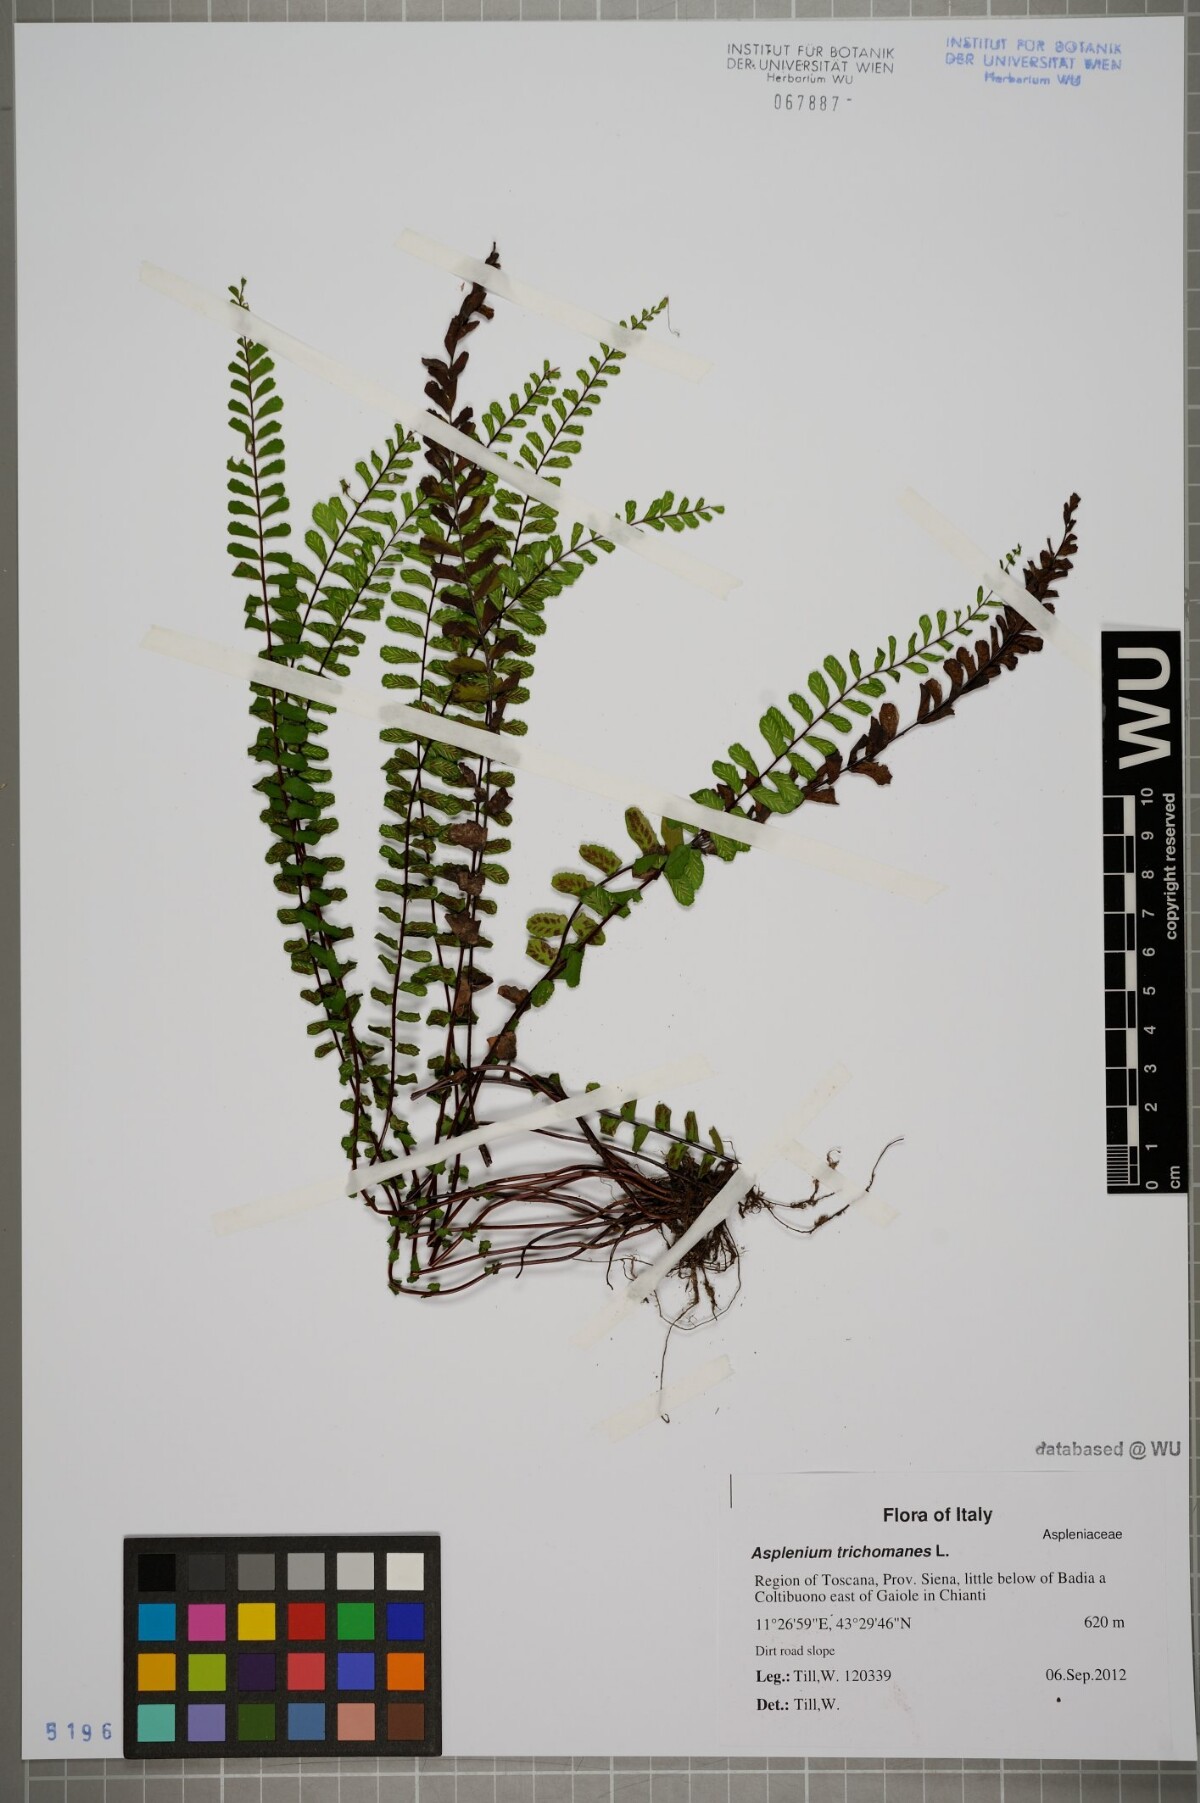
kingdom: Plantae
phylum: Tracheophyta
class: Polypodiopsida
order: Polypodiales
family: Aspleniaceae
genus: Asplenium
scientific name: Asplenium trichomanes
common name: Maidenhair spleenwort
